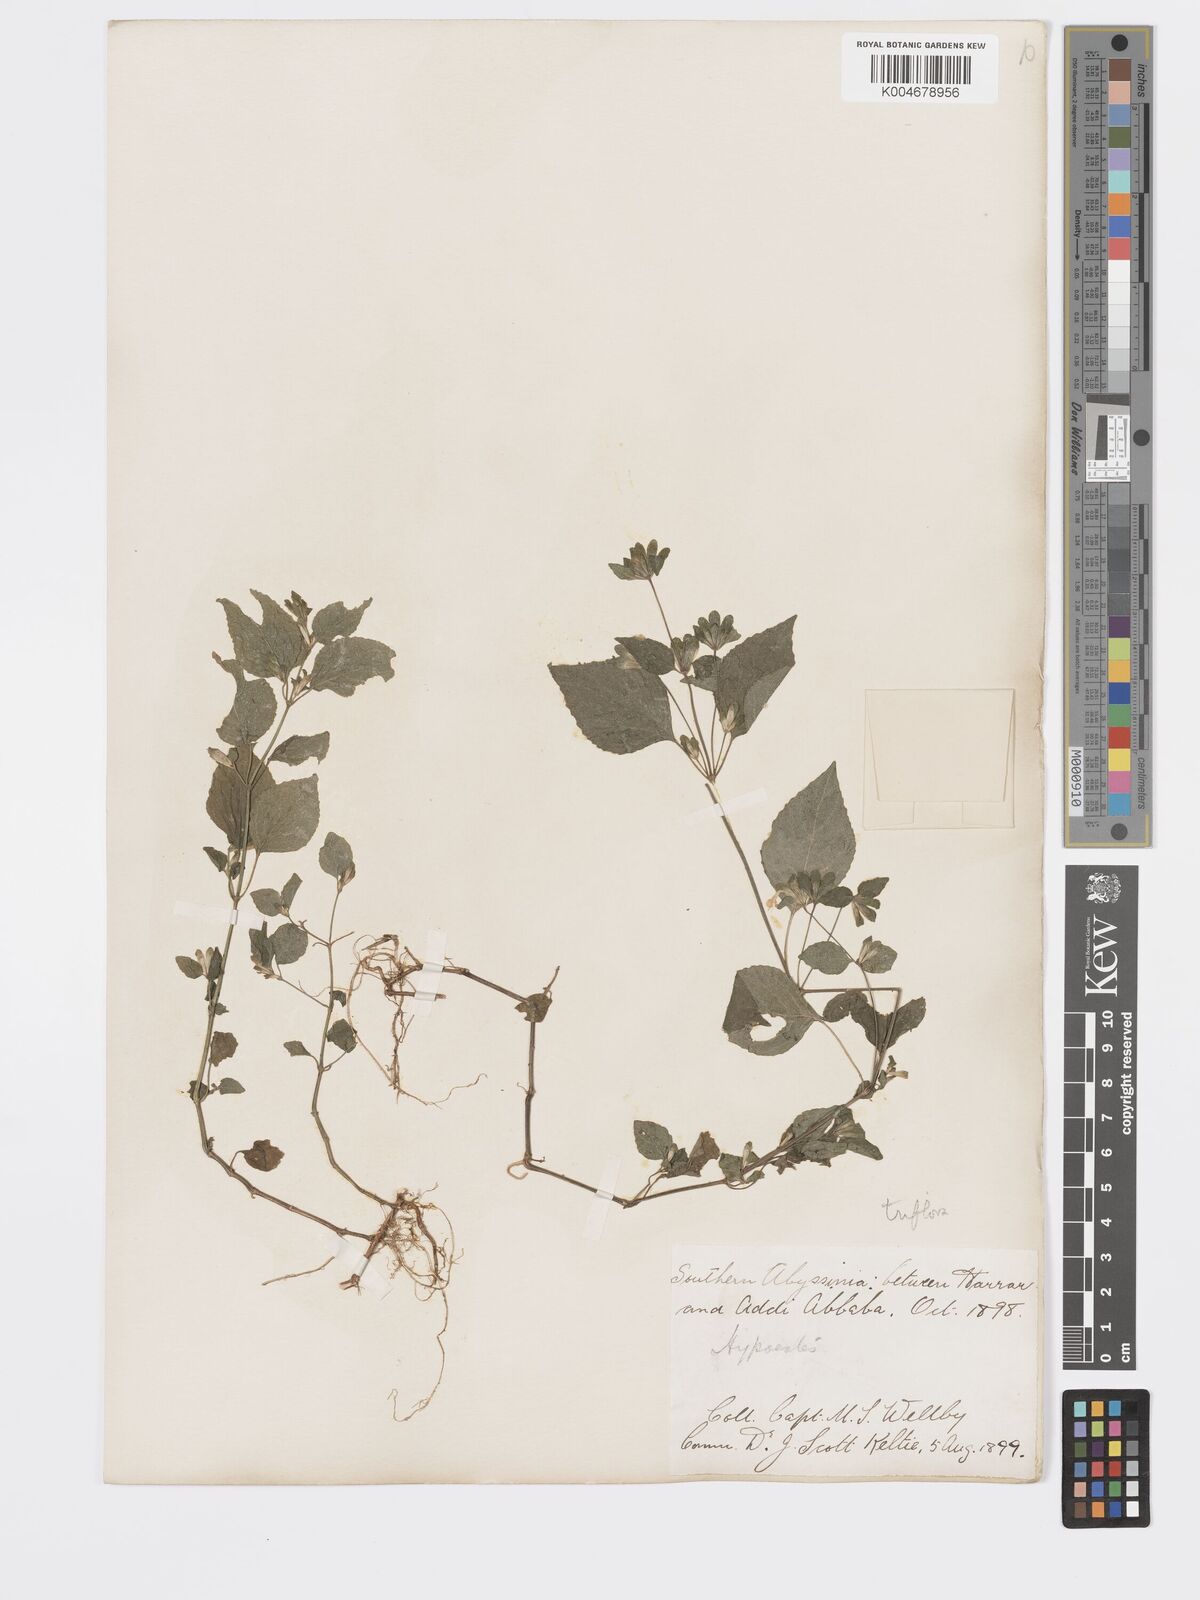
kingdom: Plantae
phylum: Tracheophyta
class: Magnoliopsida
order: Lamiales
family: Acanthaceae
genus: Hypoestes
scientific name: Hypoestes triflora
